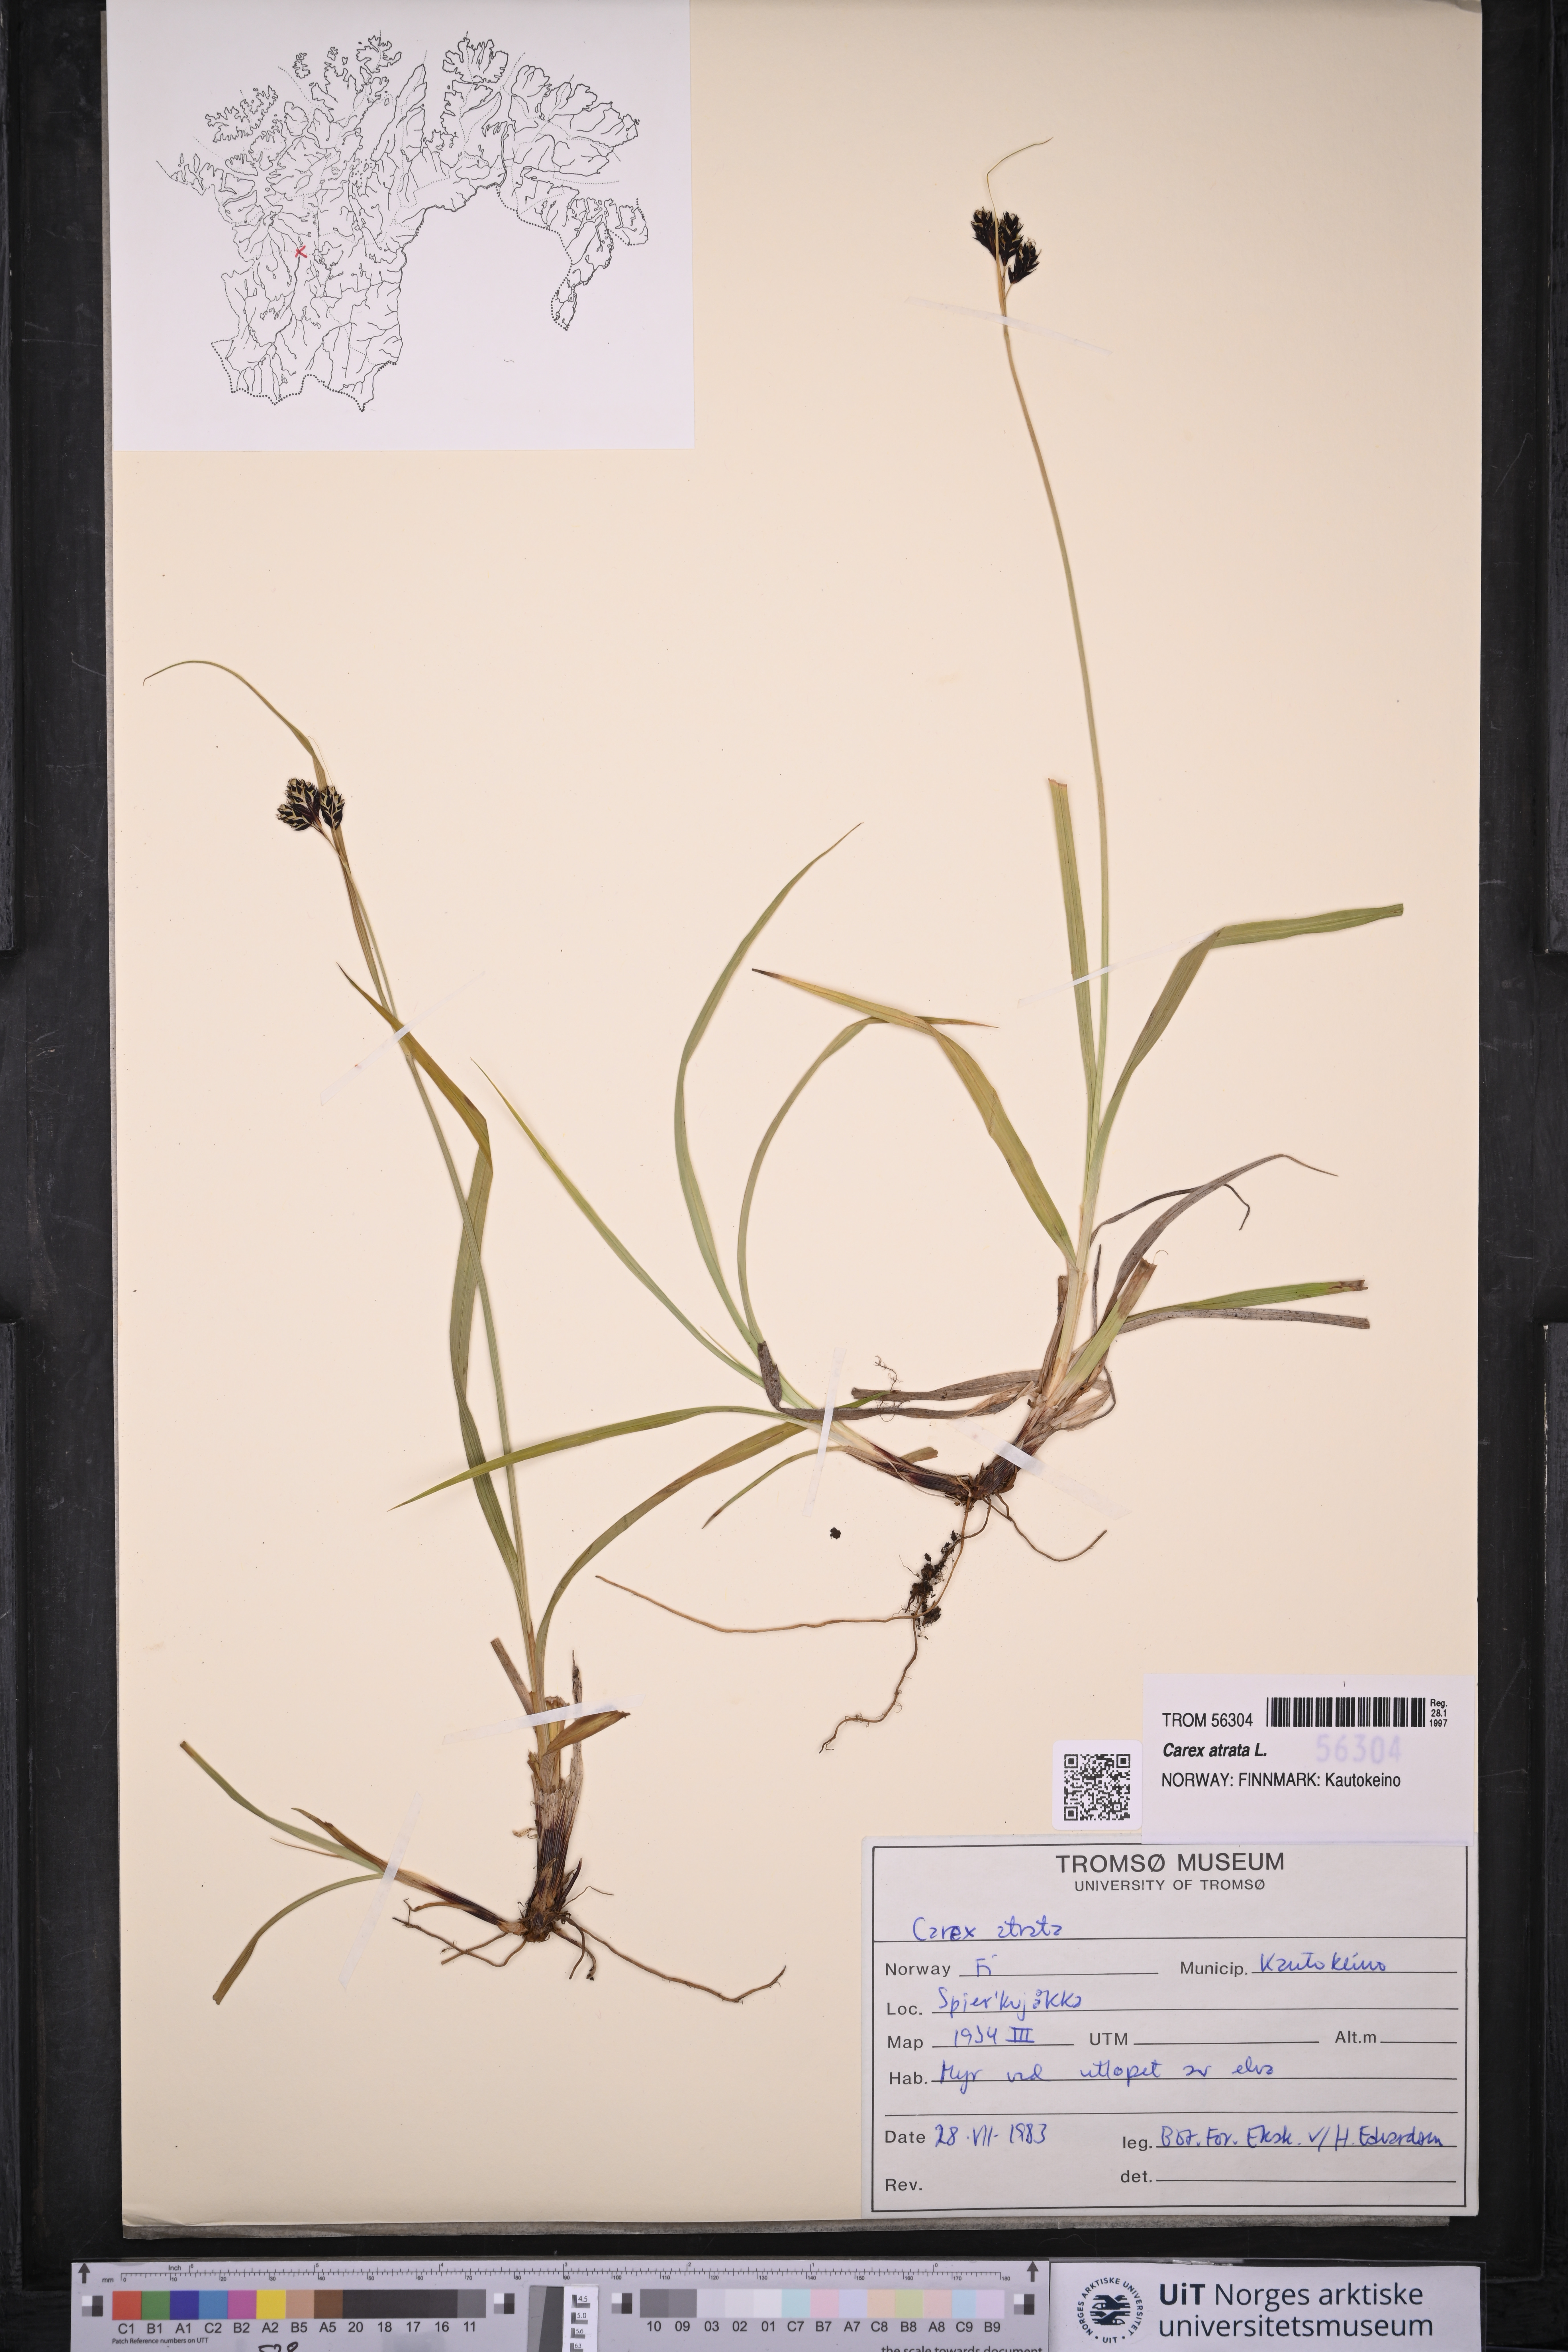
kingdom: Plantae
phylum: Tracheophyta
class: Liliopsida
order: Poales
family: Cyperaceae
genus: Carex
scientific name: Carex atrata
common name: Black alpine sedge
